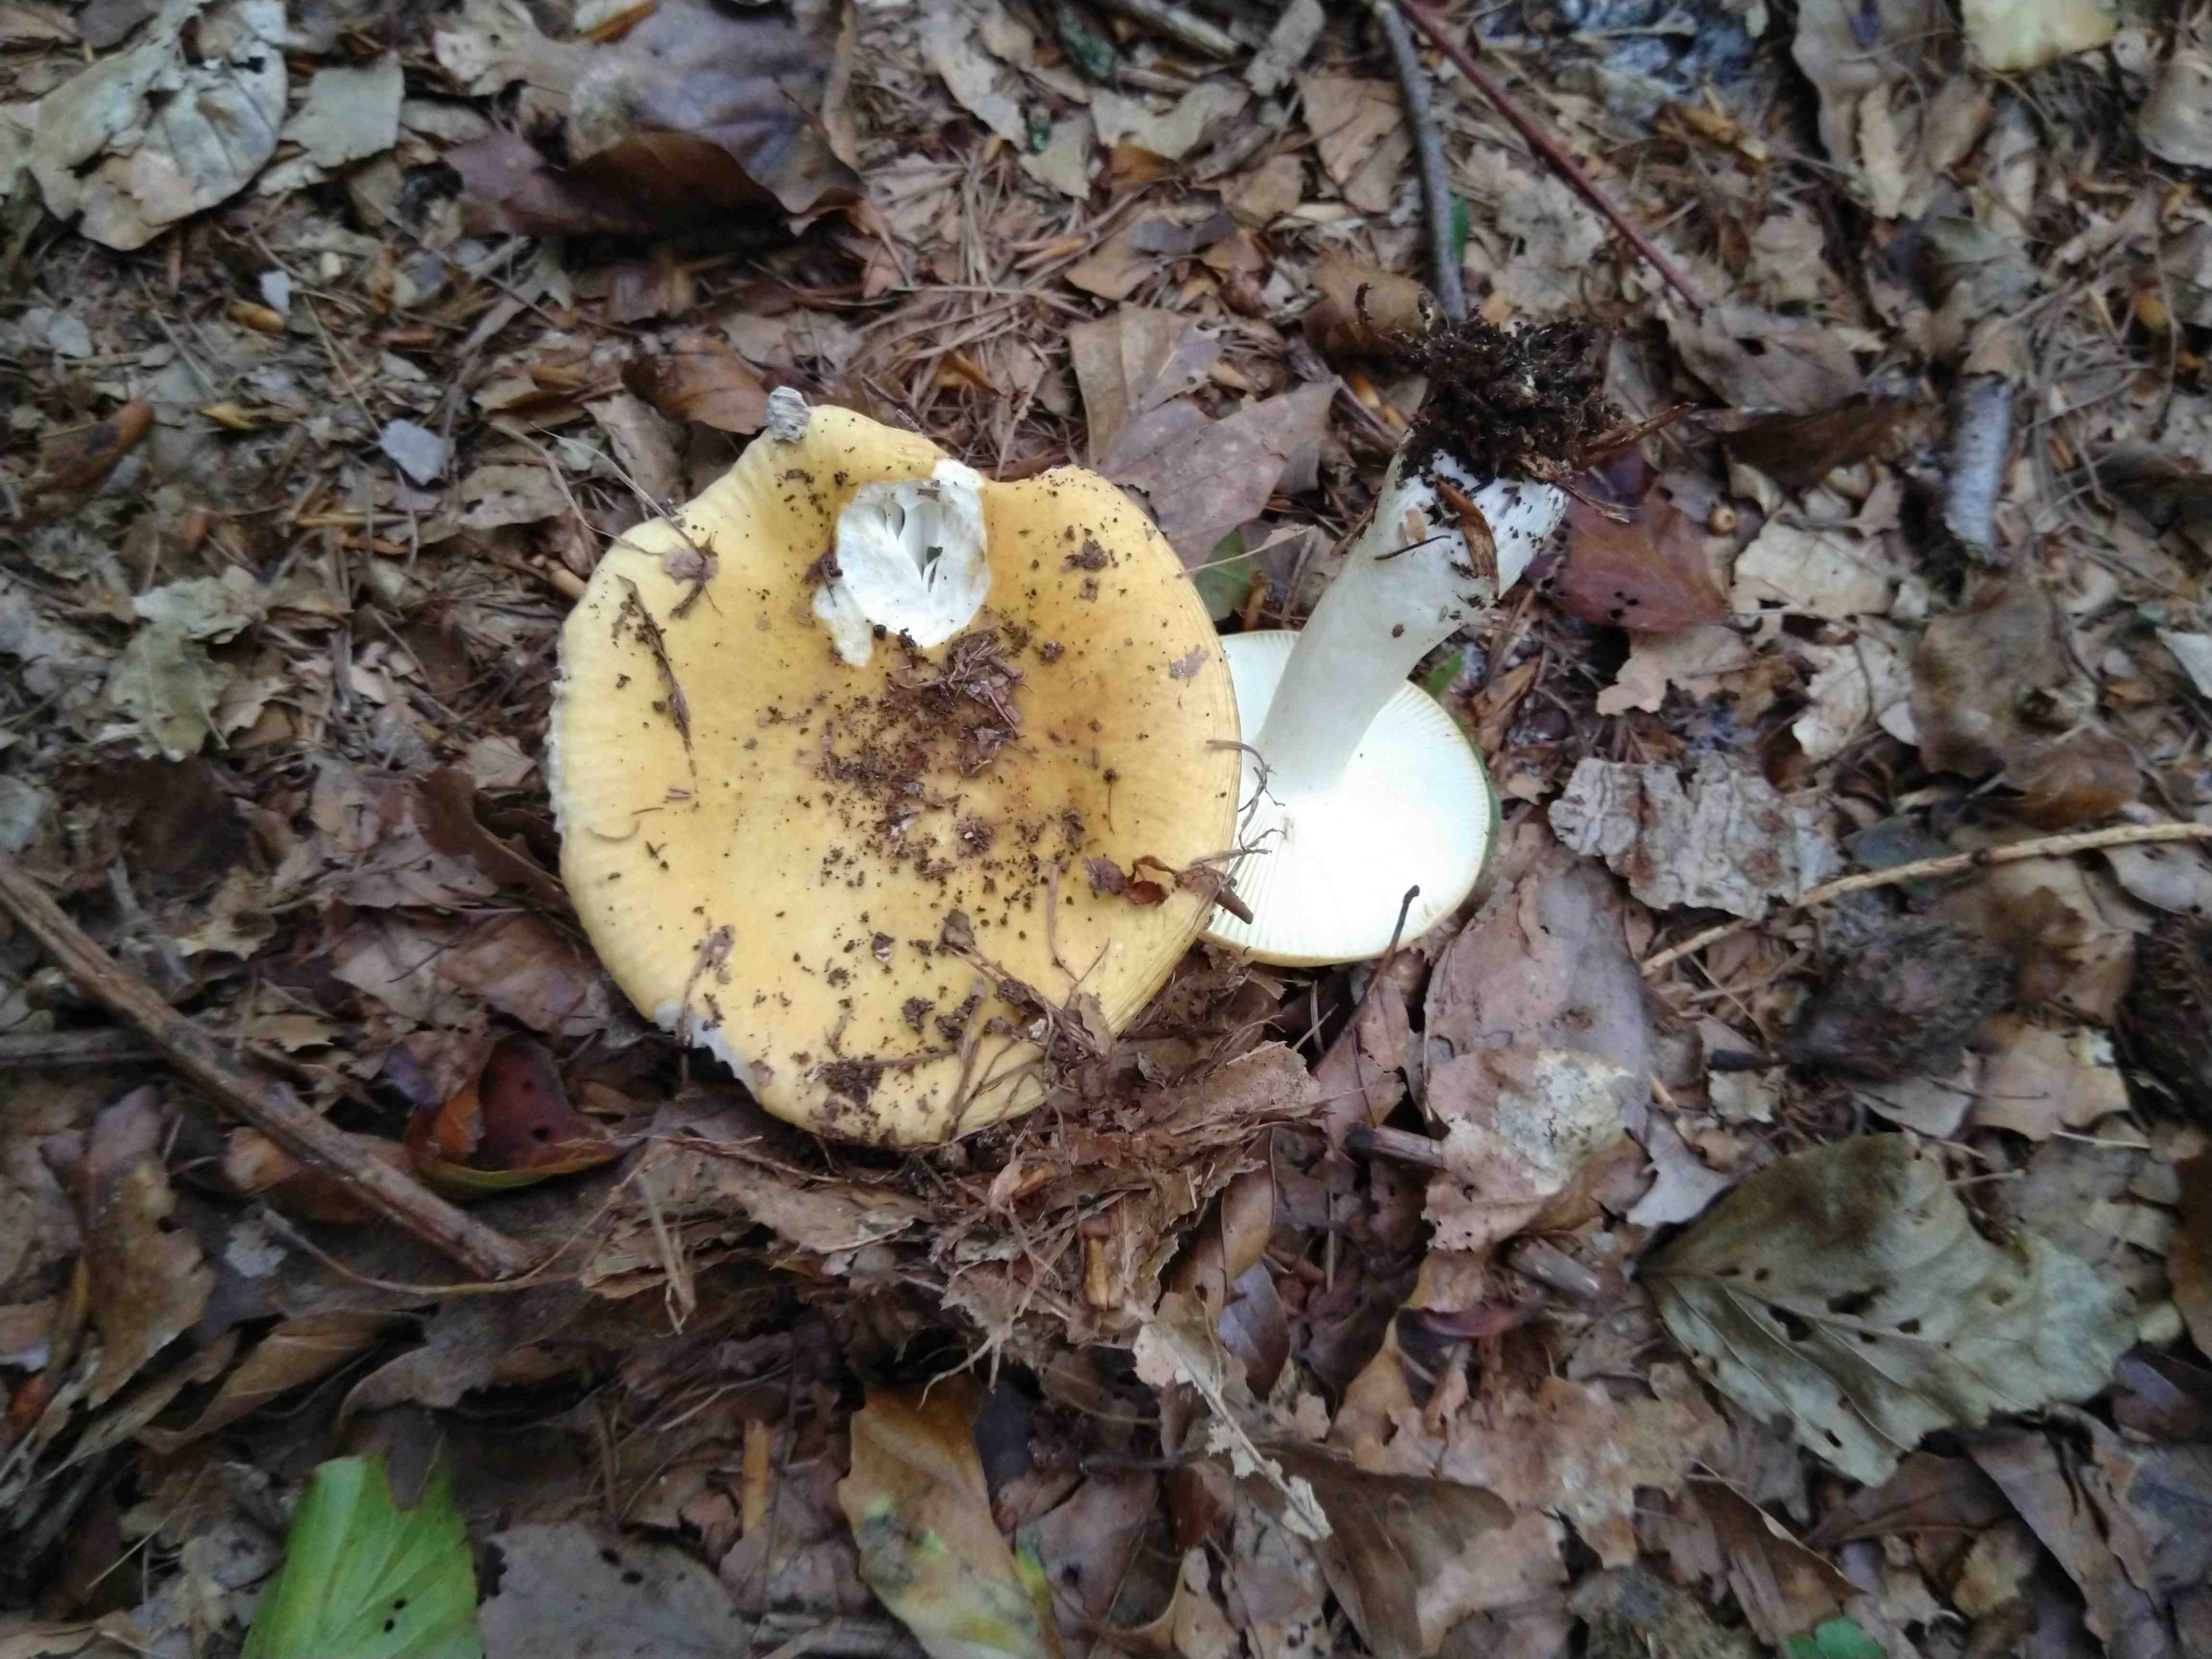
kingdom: Fungi
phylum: Basidiomycota
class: Agaricomycetes
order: Russulales
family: Russulaceae
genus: Russula
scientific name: Russula ochroleuca
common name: okkergul skørhat
